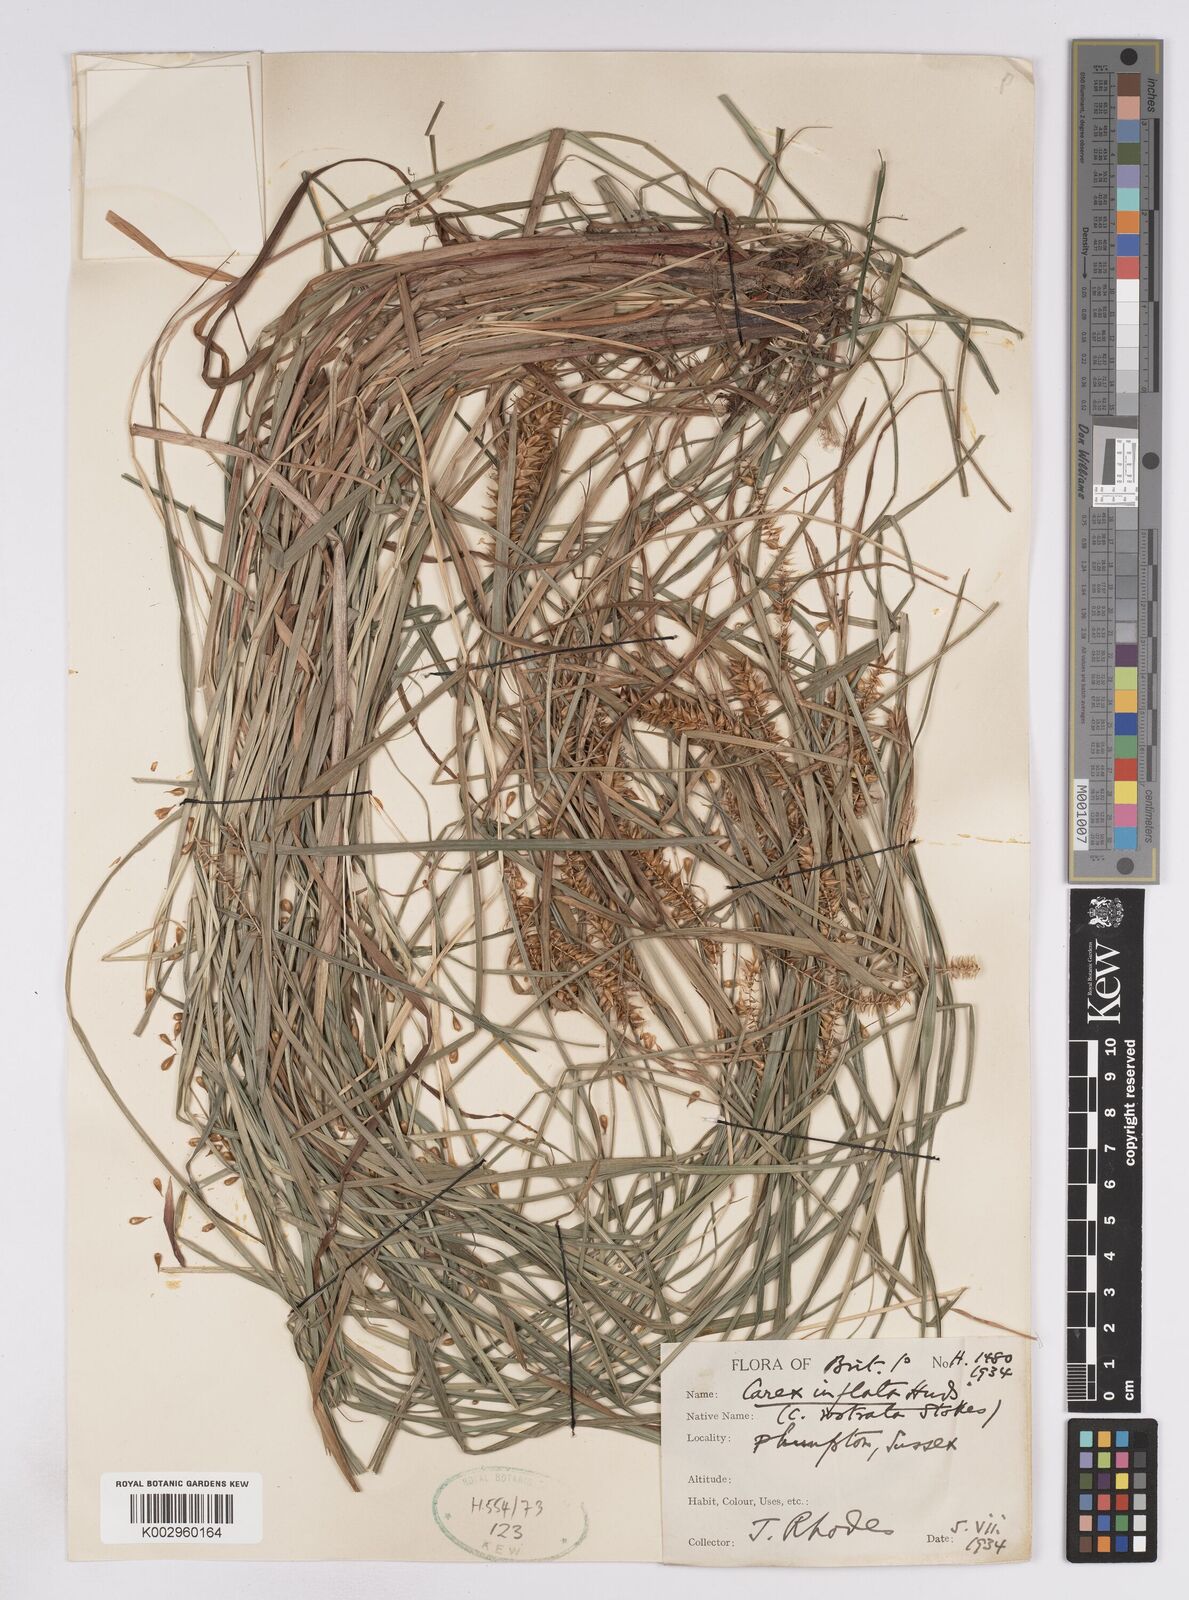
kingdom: Plantae
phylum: Tracheophyta
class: Liliopsida
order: Poales
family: Cyperaceae
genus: Carex
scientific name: Carex vesicaria
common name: Bladder-sedge
